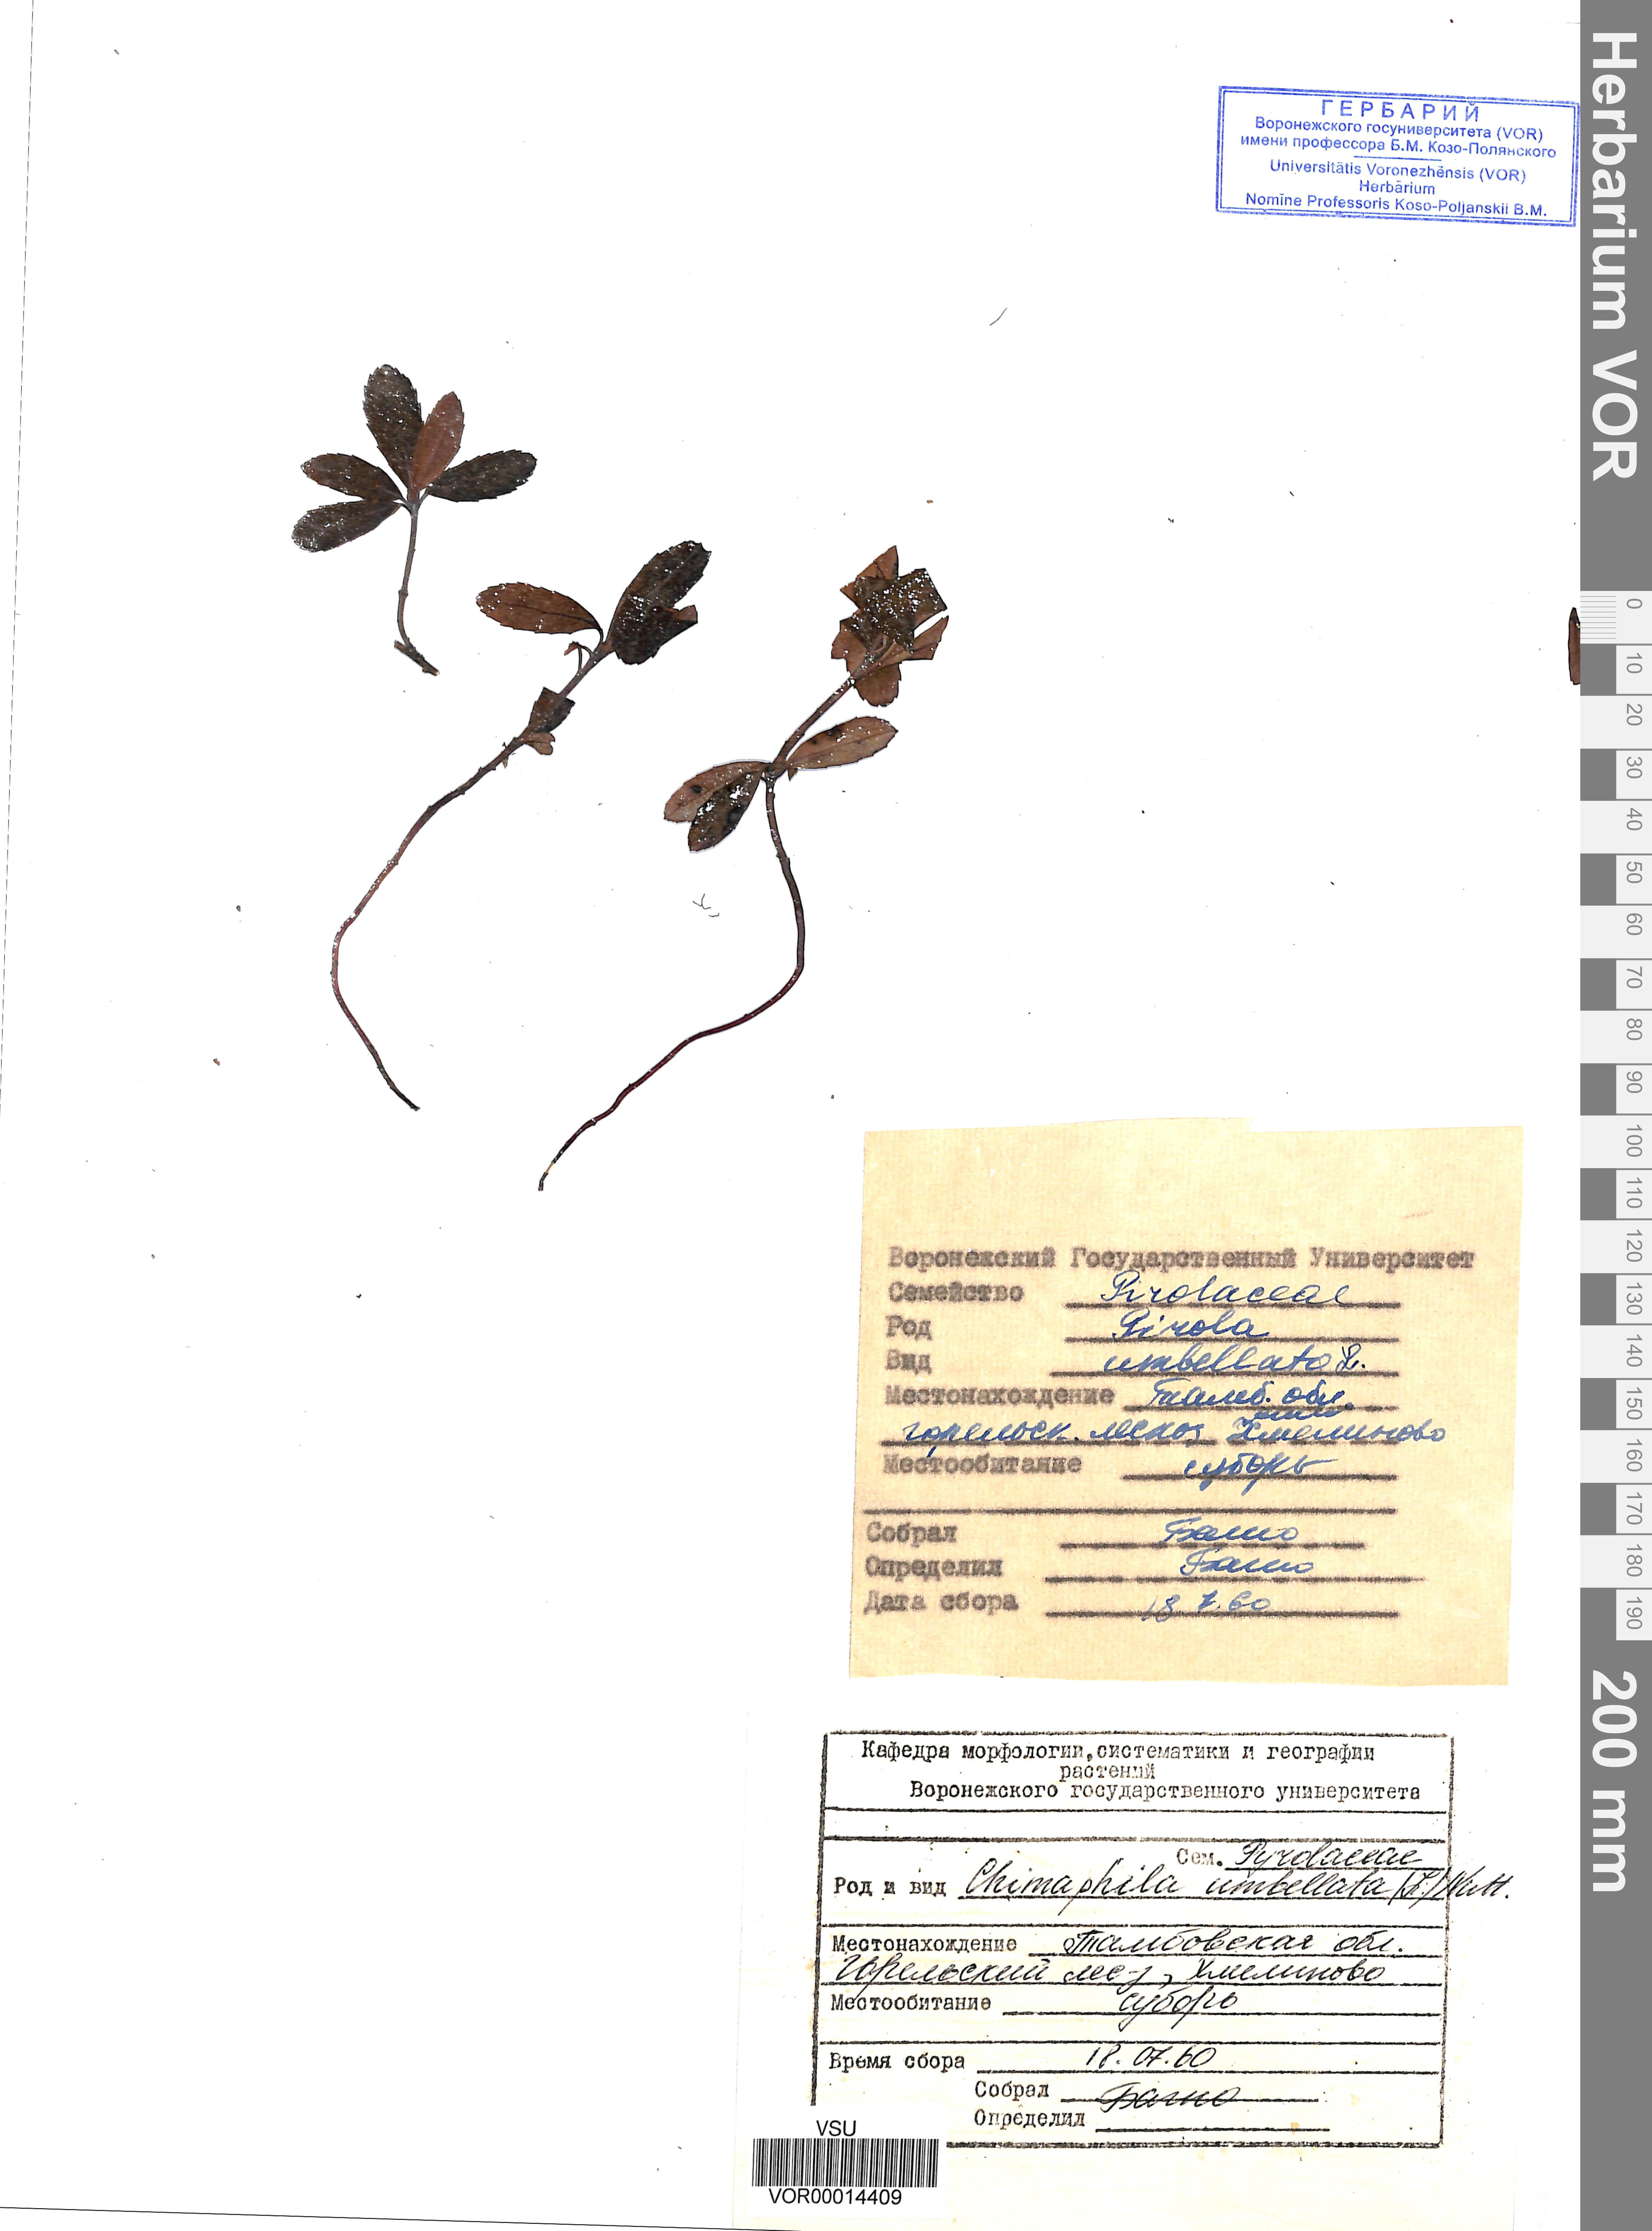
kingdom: Plantae
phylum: Tracheophyta
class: Magnoliopsida
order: Ericales
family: Ericaceae
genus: Chimaphila
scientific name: Chimaphila umbellata
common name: Pipsissewa
